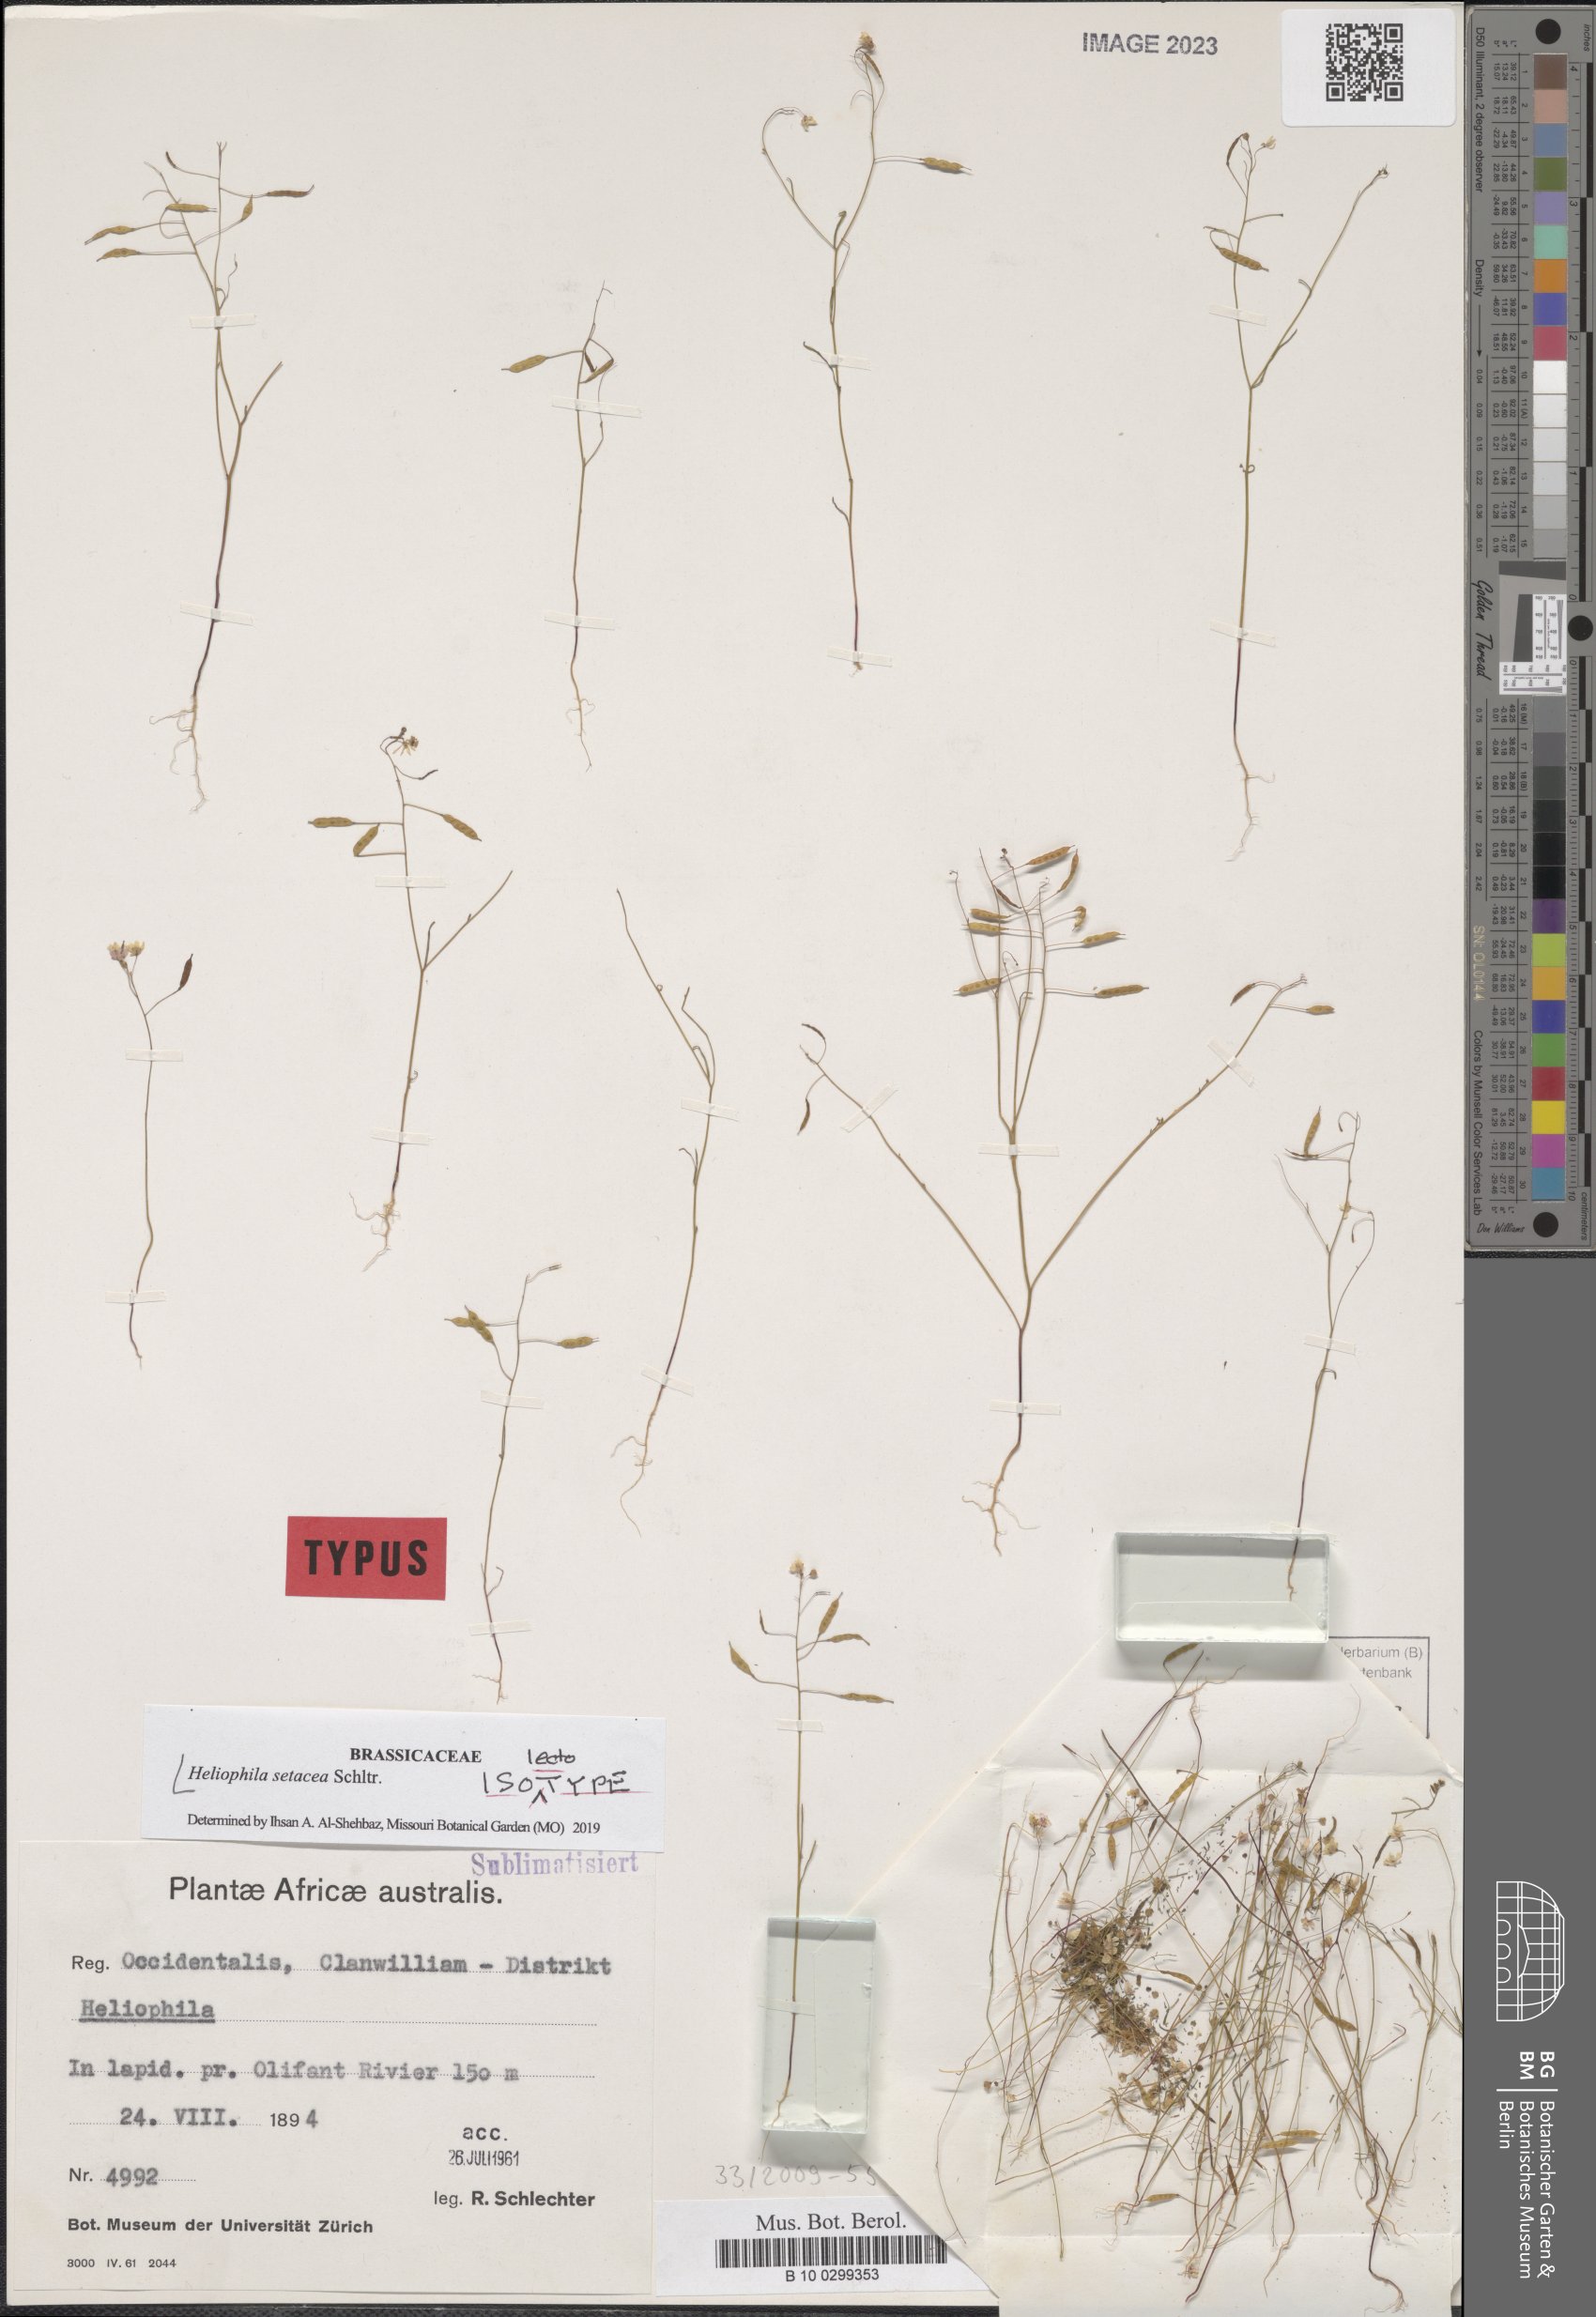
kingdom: Plantae
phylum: Tracheophyta
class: Magnoliopsida
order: Brassicales
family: Brassicaceae
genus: Heliophila
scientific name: Heliophila pusilla
